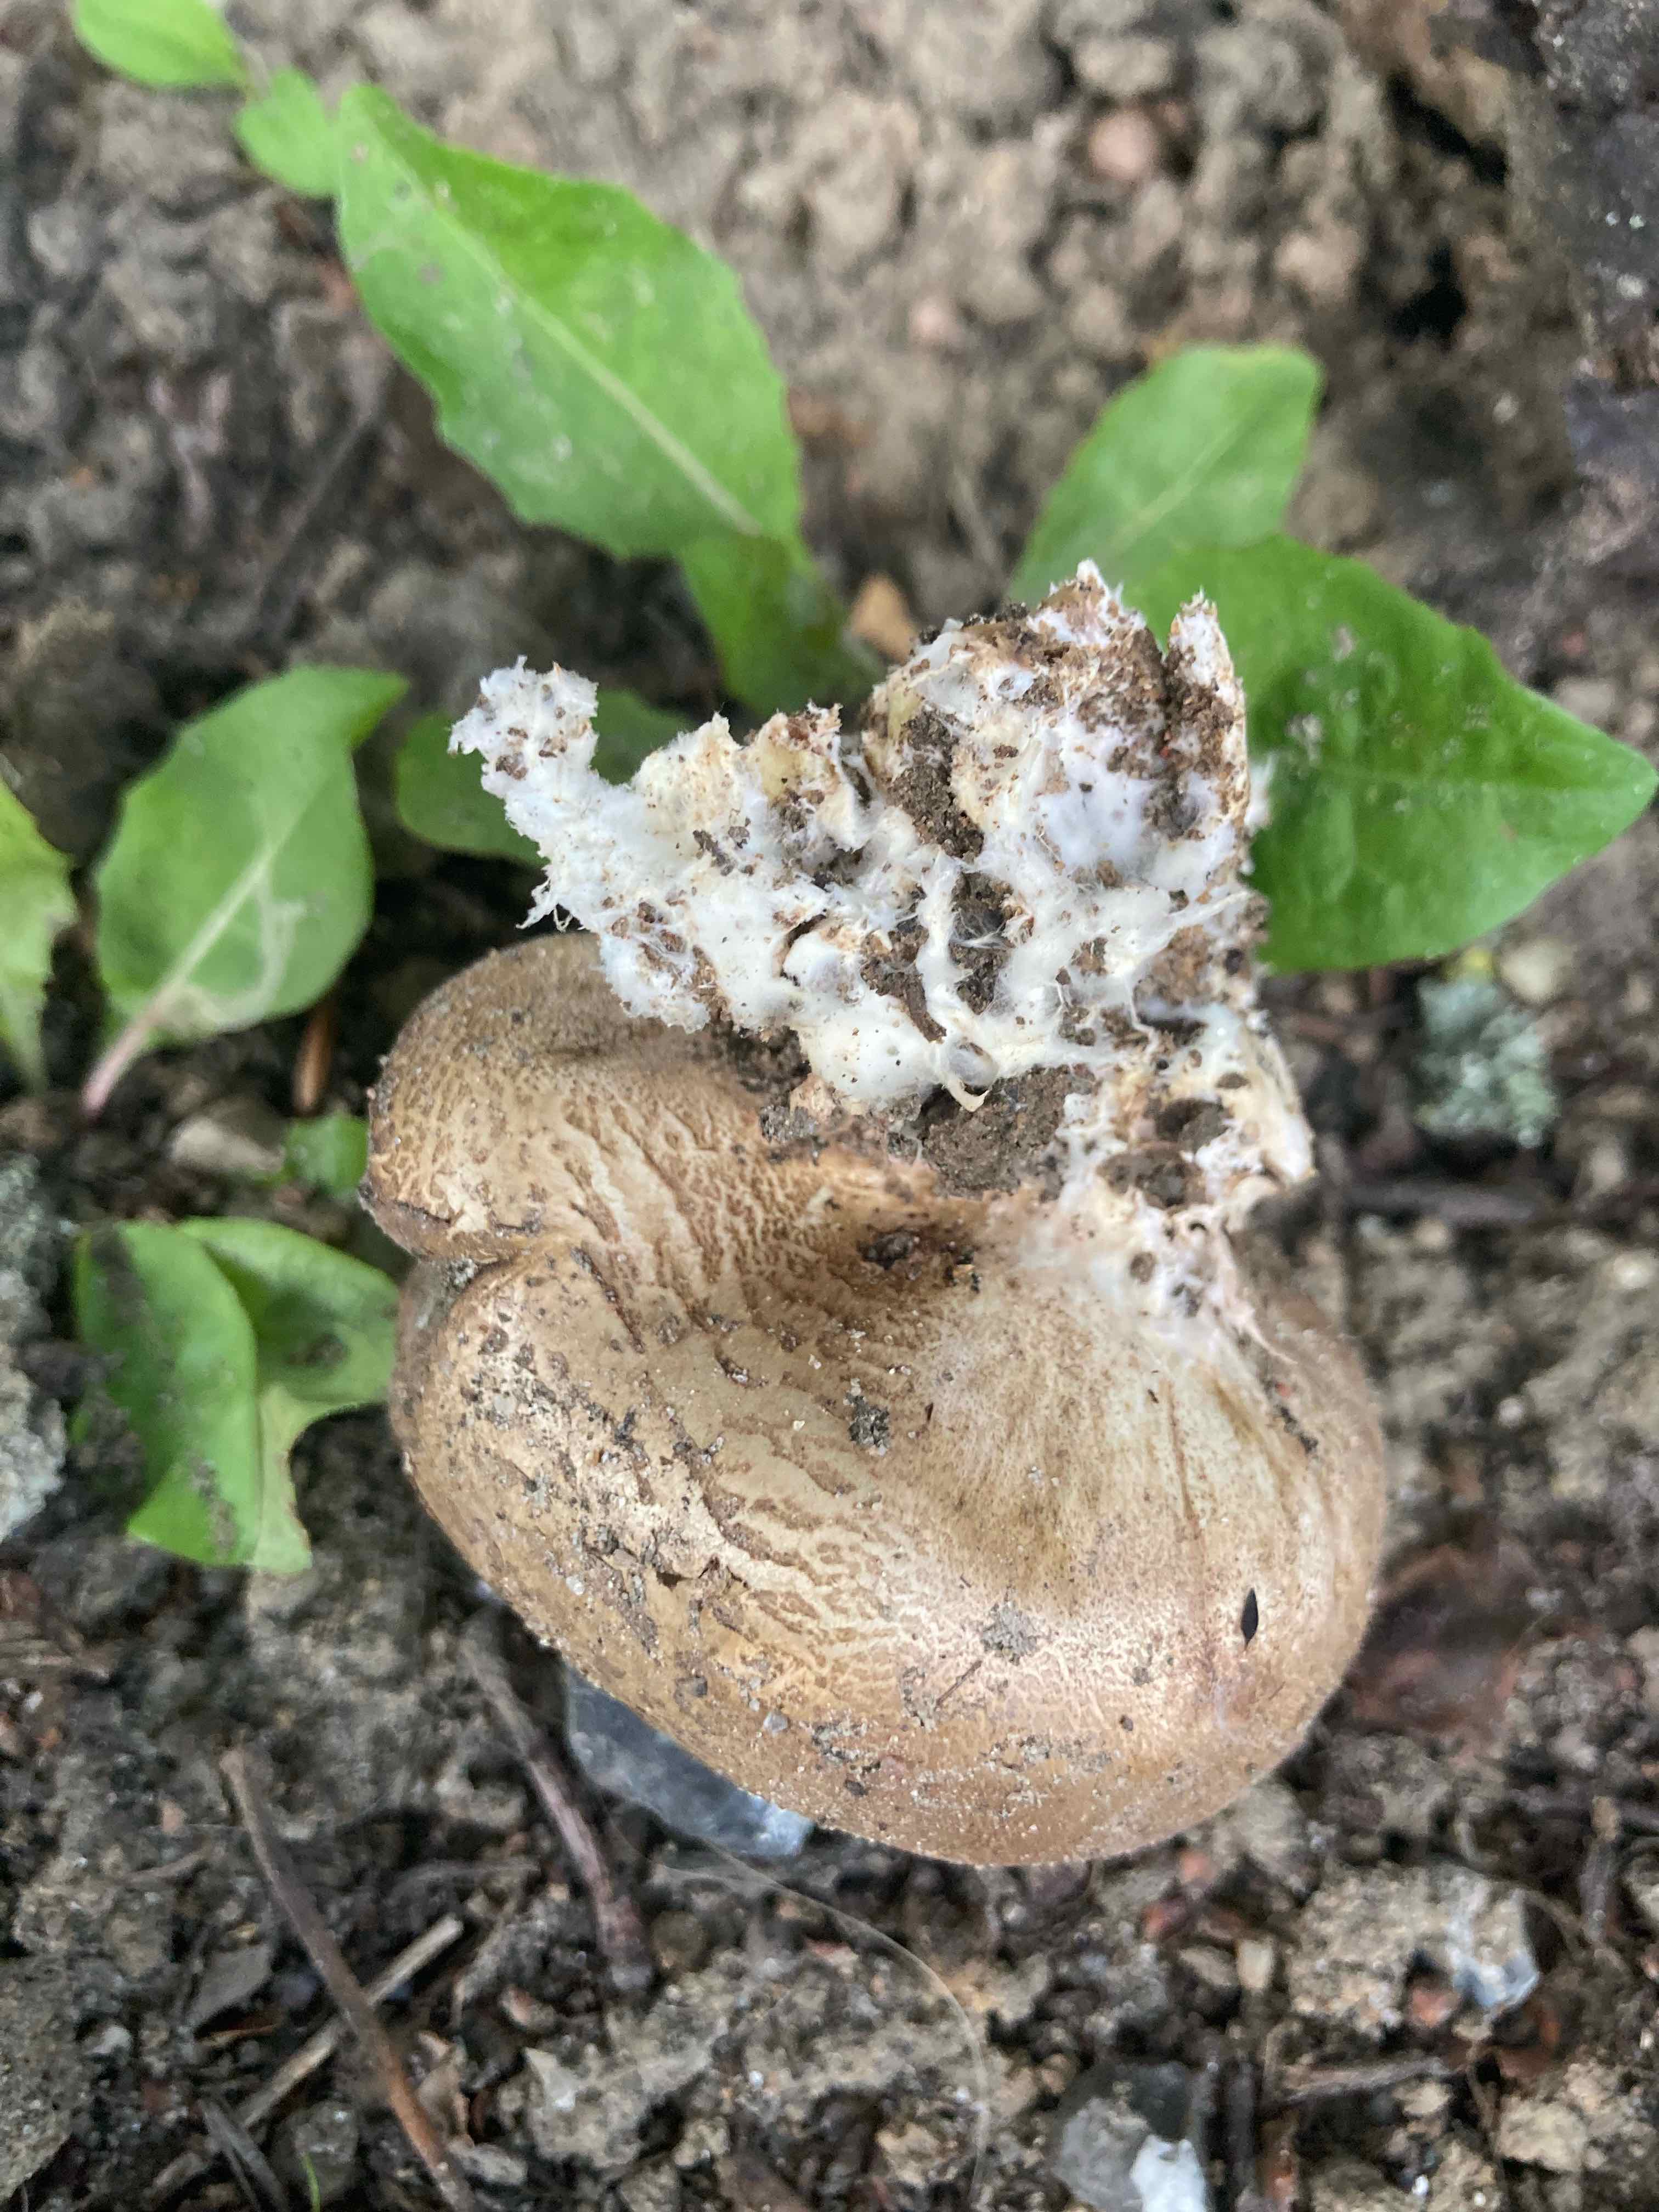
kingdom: Fungi
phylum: Basidiomycota
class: Agaricomycetes
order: Boletales
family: Sclerodermataceae
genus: Scleroderma
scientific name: Scleroderma
